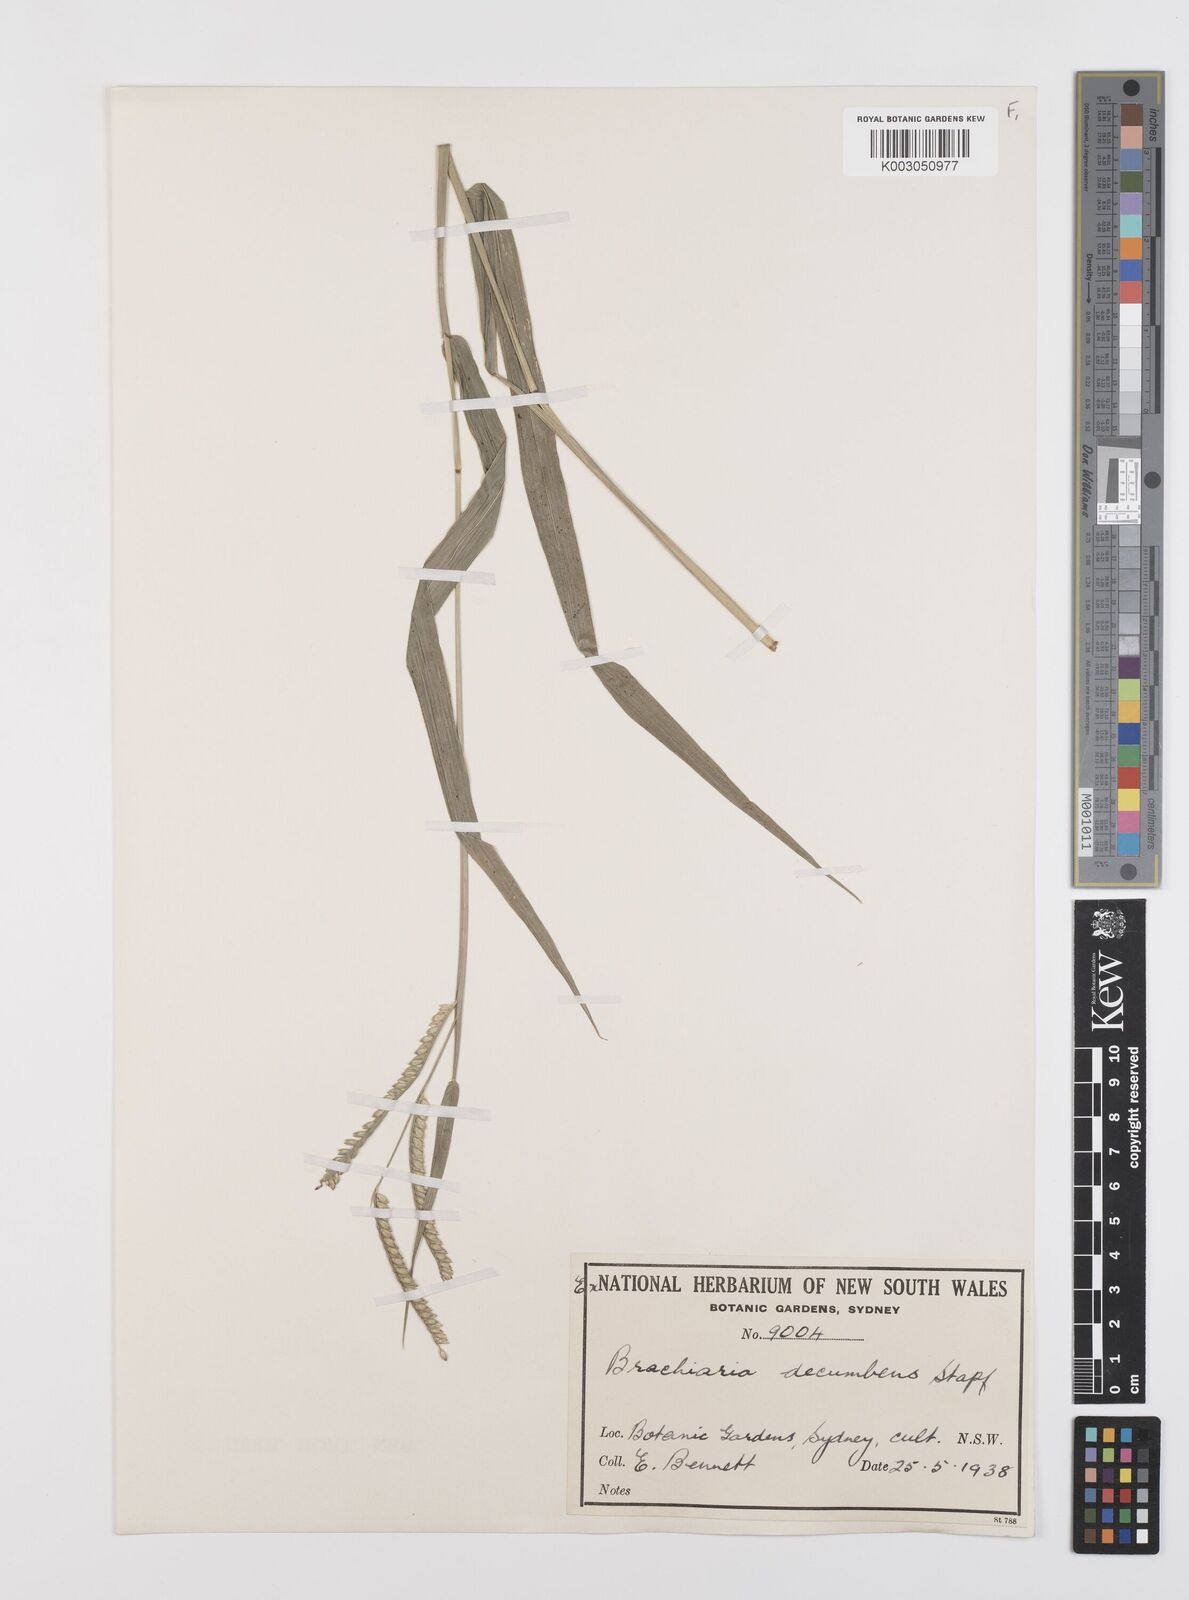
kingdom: Plantae
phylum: Tracheophyta
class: Liliopsida
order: Poales
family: Poaceae
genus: Urochloa
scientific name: Urochloa eminii
